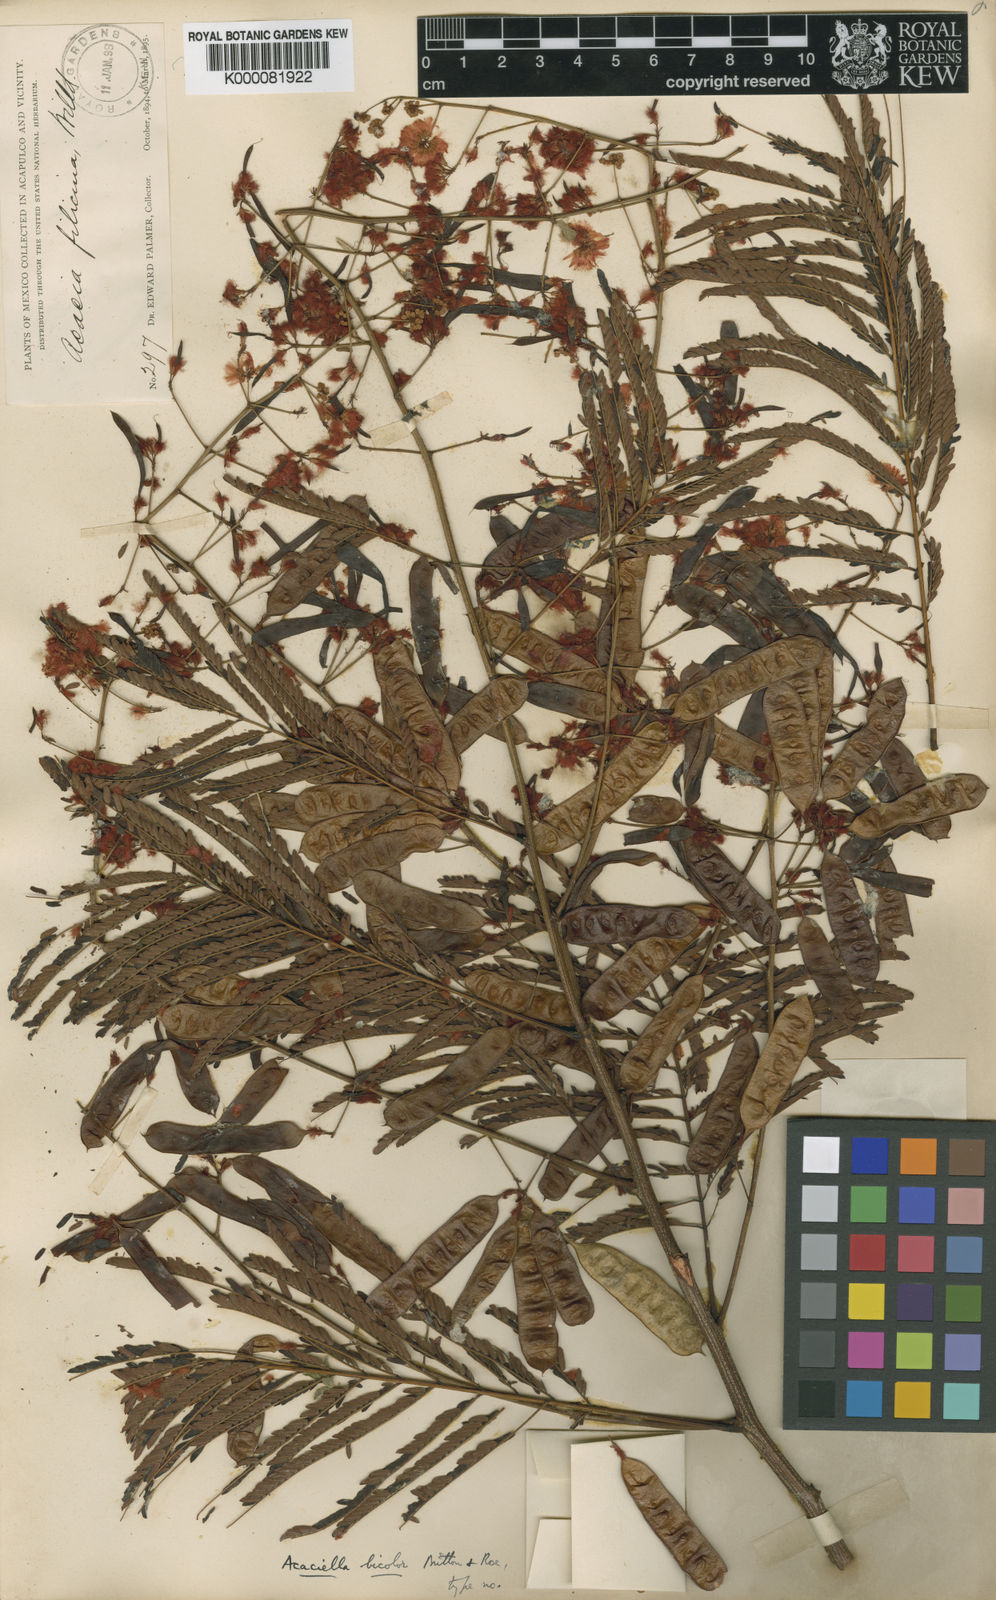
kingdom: Plantae
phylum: Tracheophyta
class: Magnoliopsida
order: Fabales
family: Fabaceae
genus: Acaciella
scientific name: Acaciella bicolor
